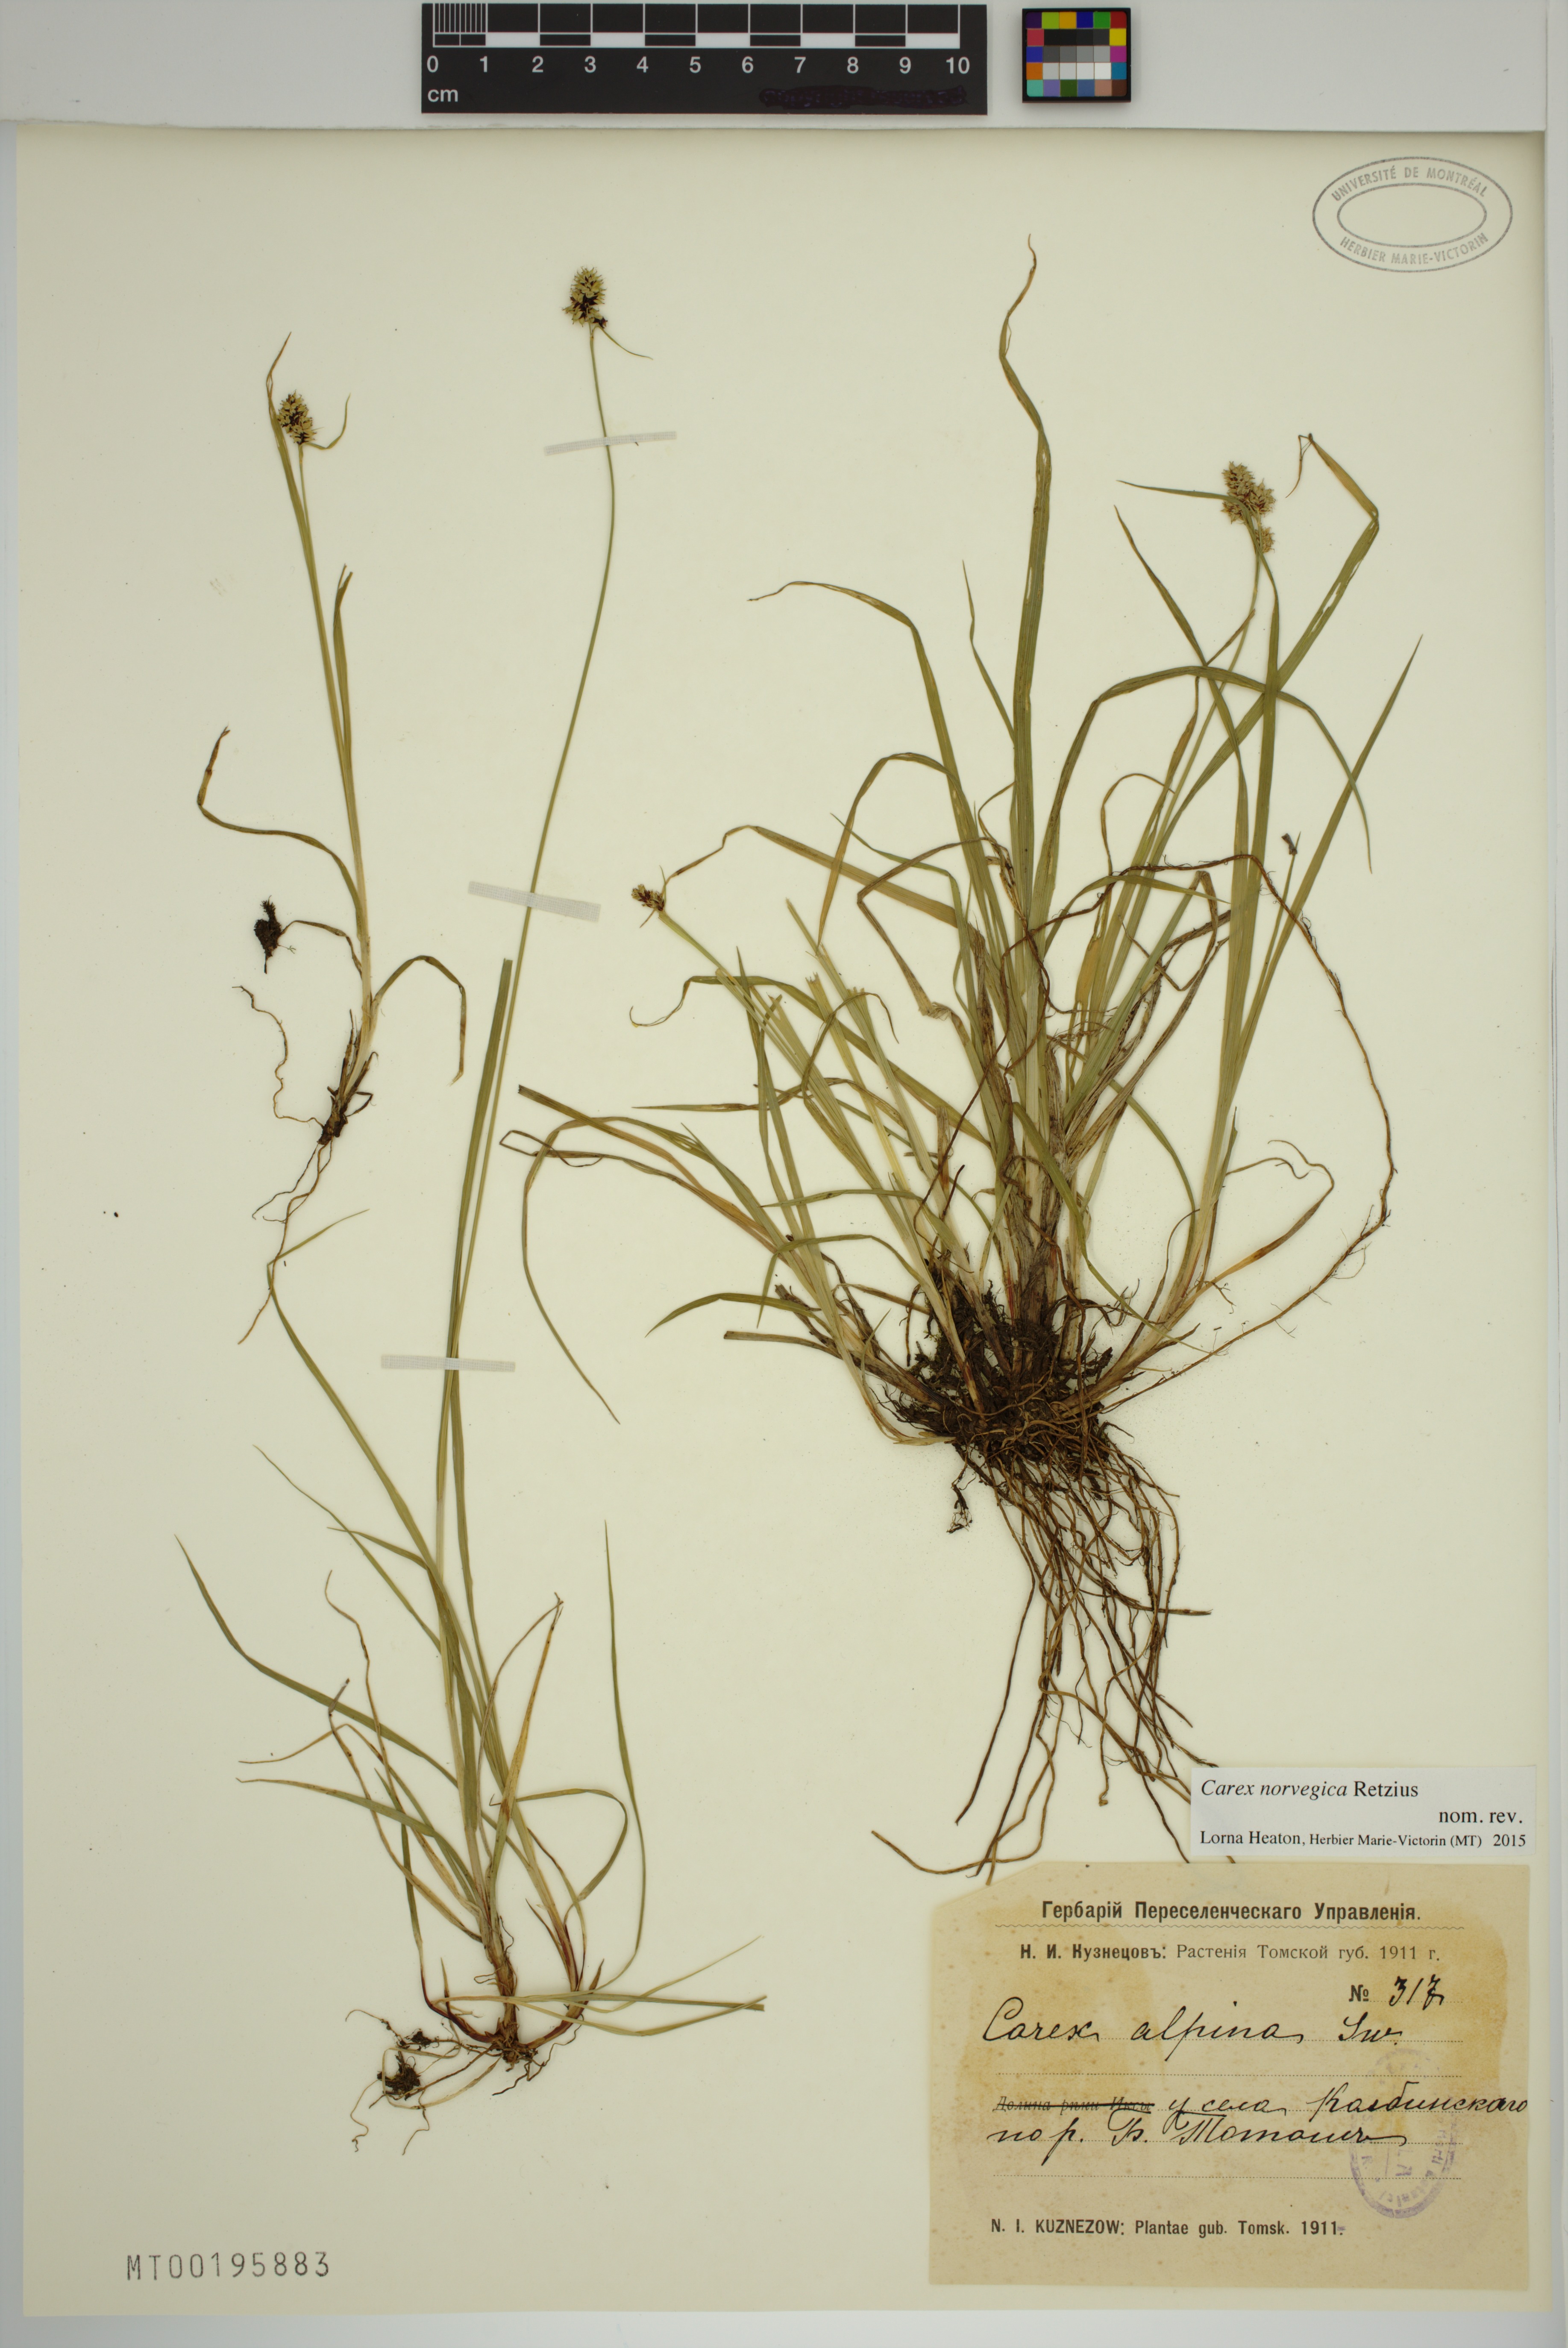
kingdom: Plantae
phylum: Tracheophyta
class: Liliopsida
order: Poales
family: Cyperaceae
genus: Carex
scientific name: Carex norvegica
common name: Close-headed alpine-sedge
